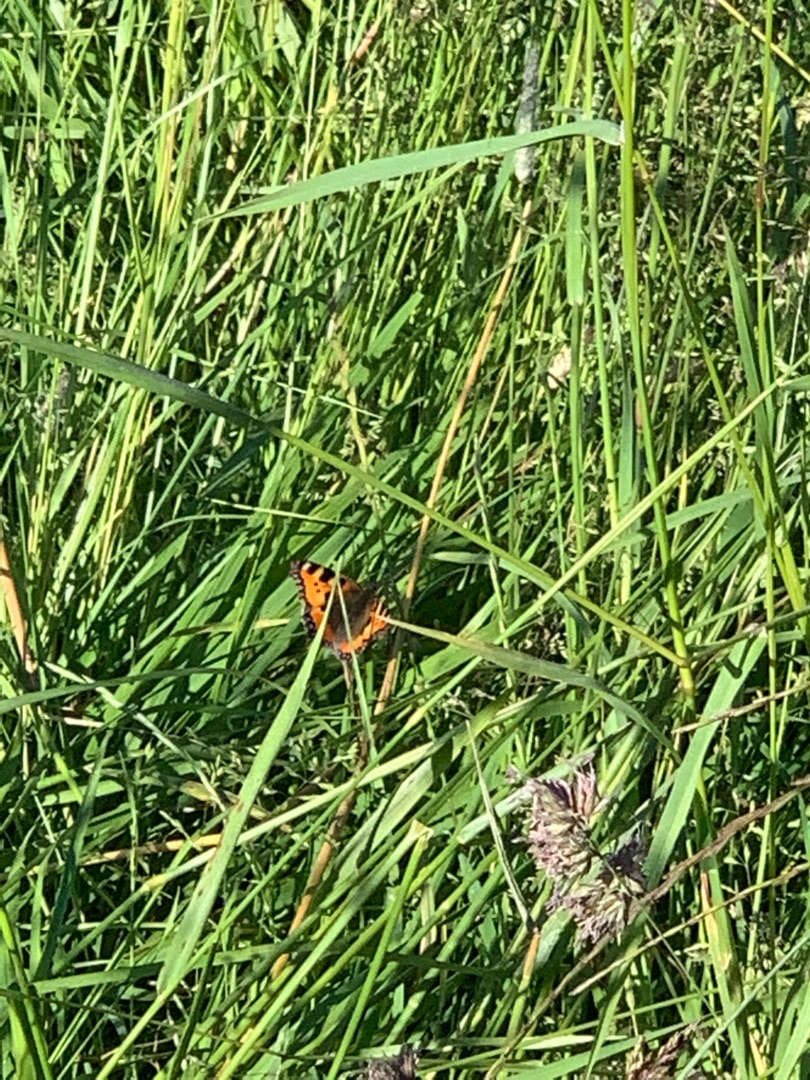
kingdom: Animalia
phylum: Arthropoda
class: Insecta
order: Lepidoptera
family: Nymphalidae
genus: Aglais
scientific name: Aglais urticae
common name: Nældens takvinge
